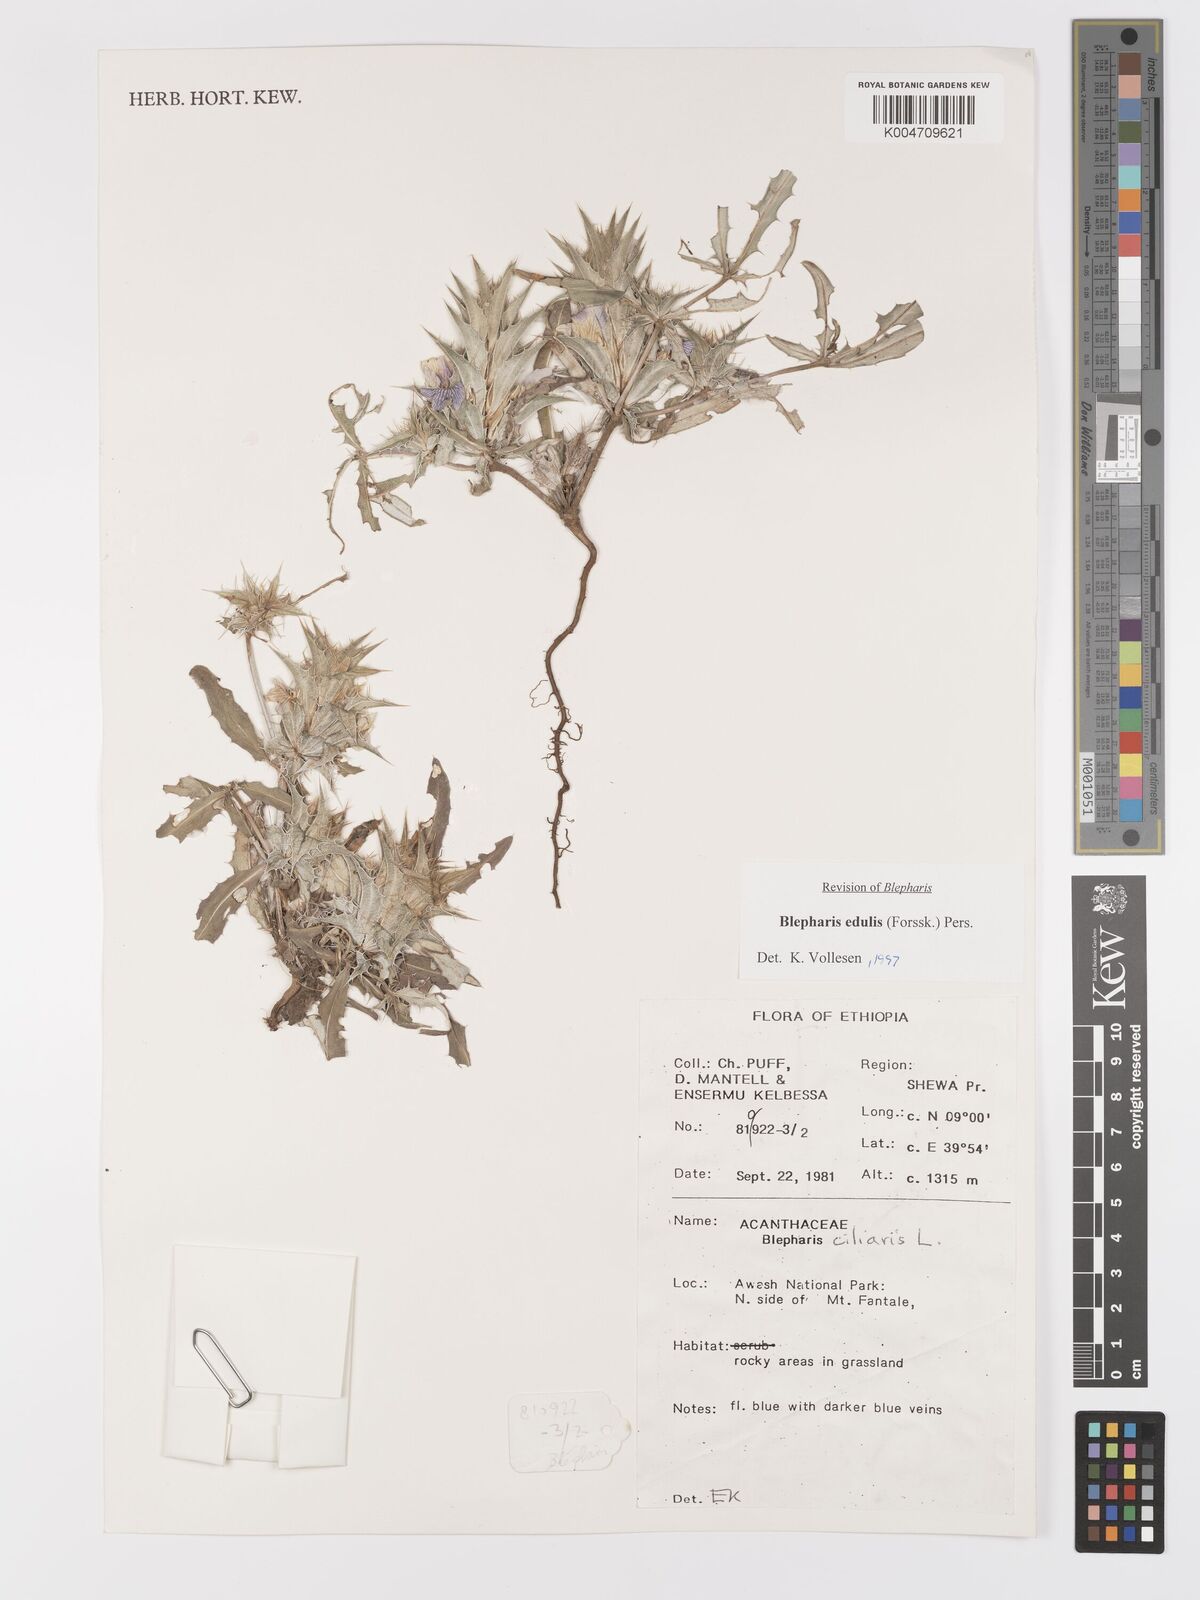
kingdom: Plantae
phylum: Tracheophyta
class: Magnoliopsida
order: Lamiales
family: Acanthaceae
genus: Blepharis
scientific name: Blepharis edulis
